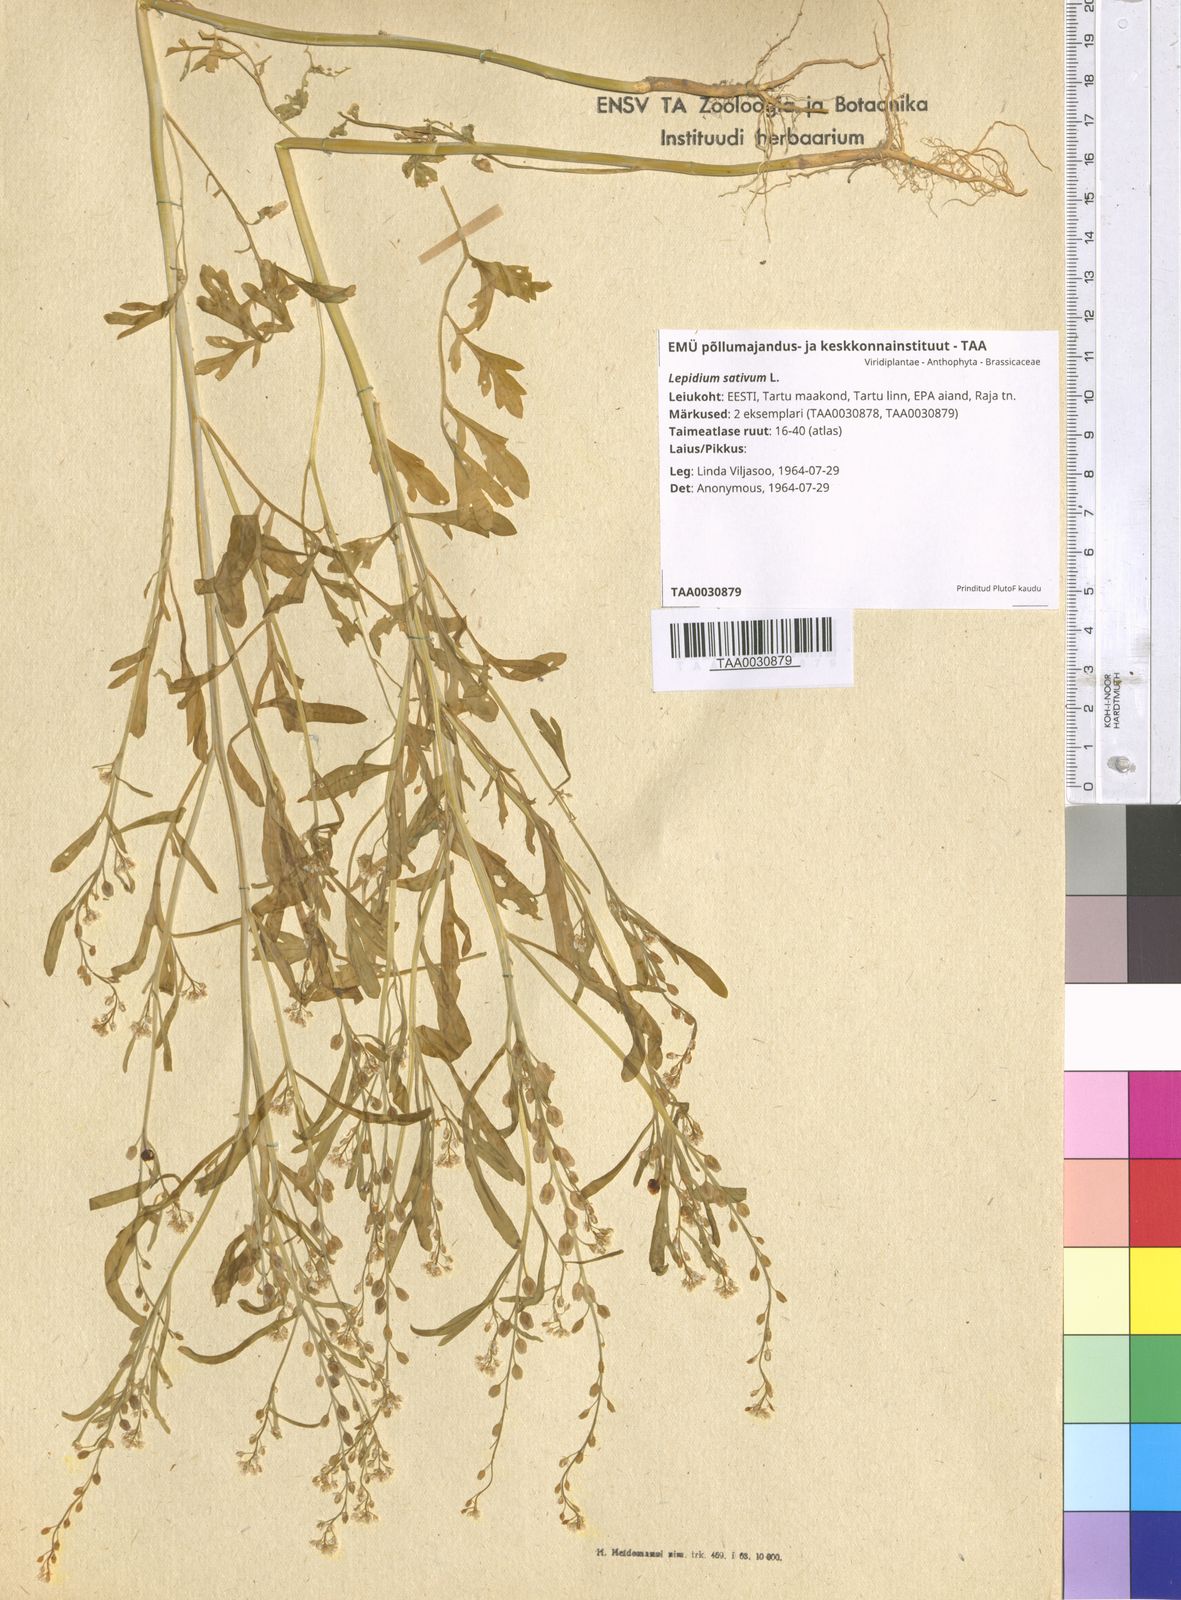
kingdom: Plantae
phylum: Tracheophyta
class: Magnoliopsida
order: Brassicales
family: Brassicaceae
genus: Lepidium
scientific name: Lepidium sativum
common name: Garden cress
